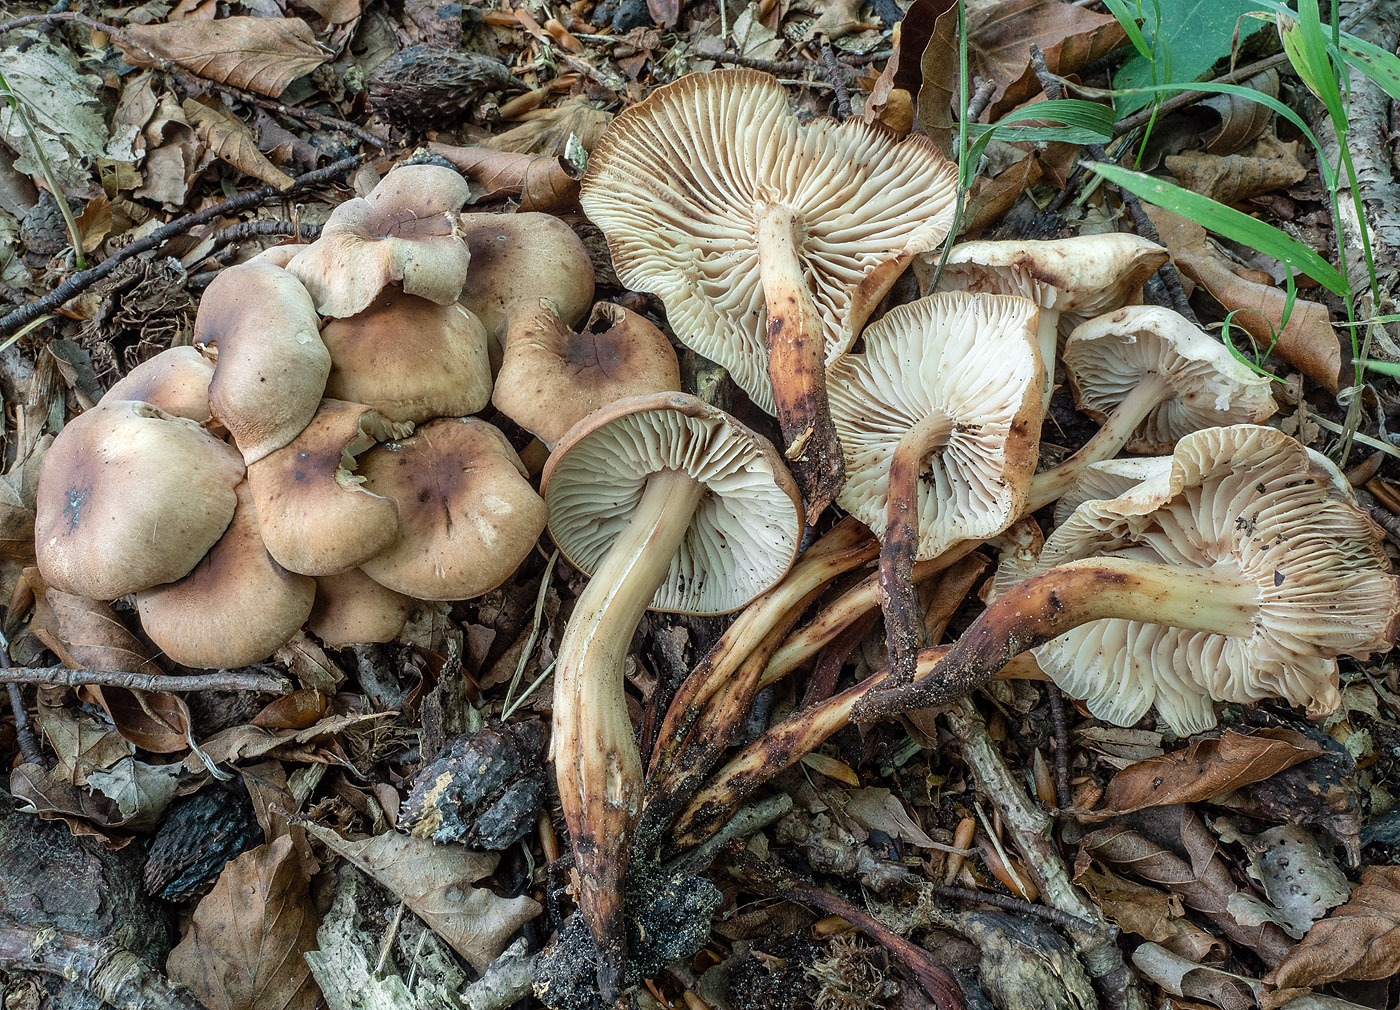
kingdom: Fungi
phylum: Basidiomycota
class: Agaricomycetes
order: Agaricales
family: Omphalotaceae
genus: Gymnopus
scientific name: Gymnopus fusipes
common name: tenstokket fladhat
